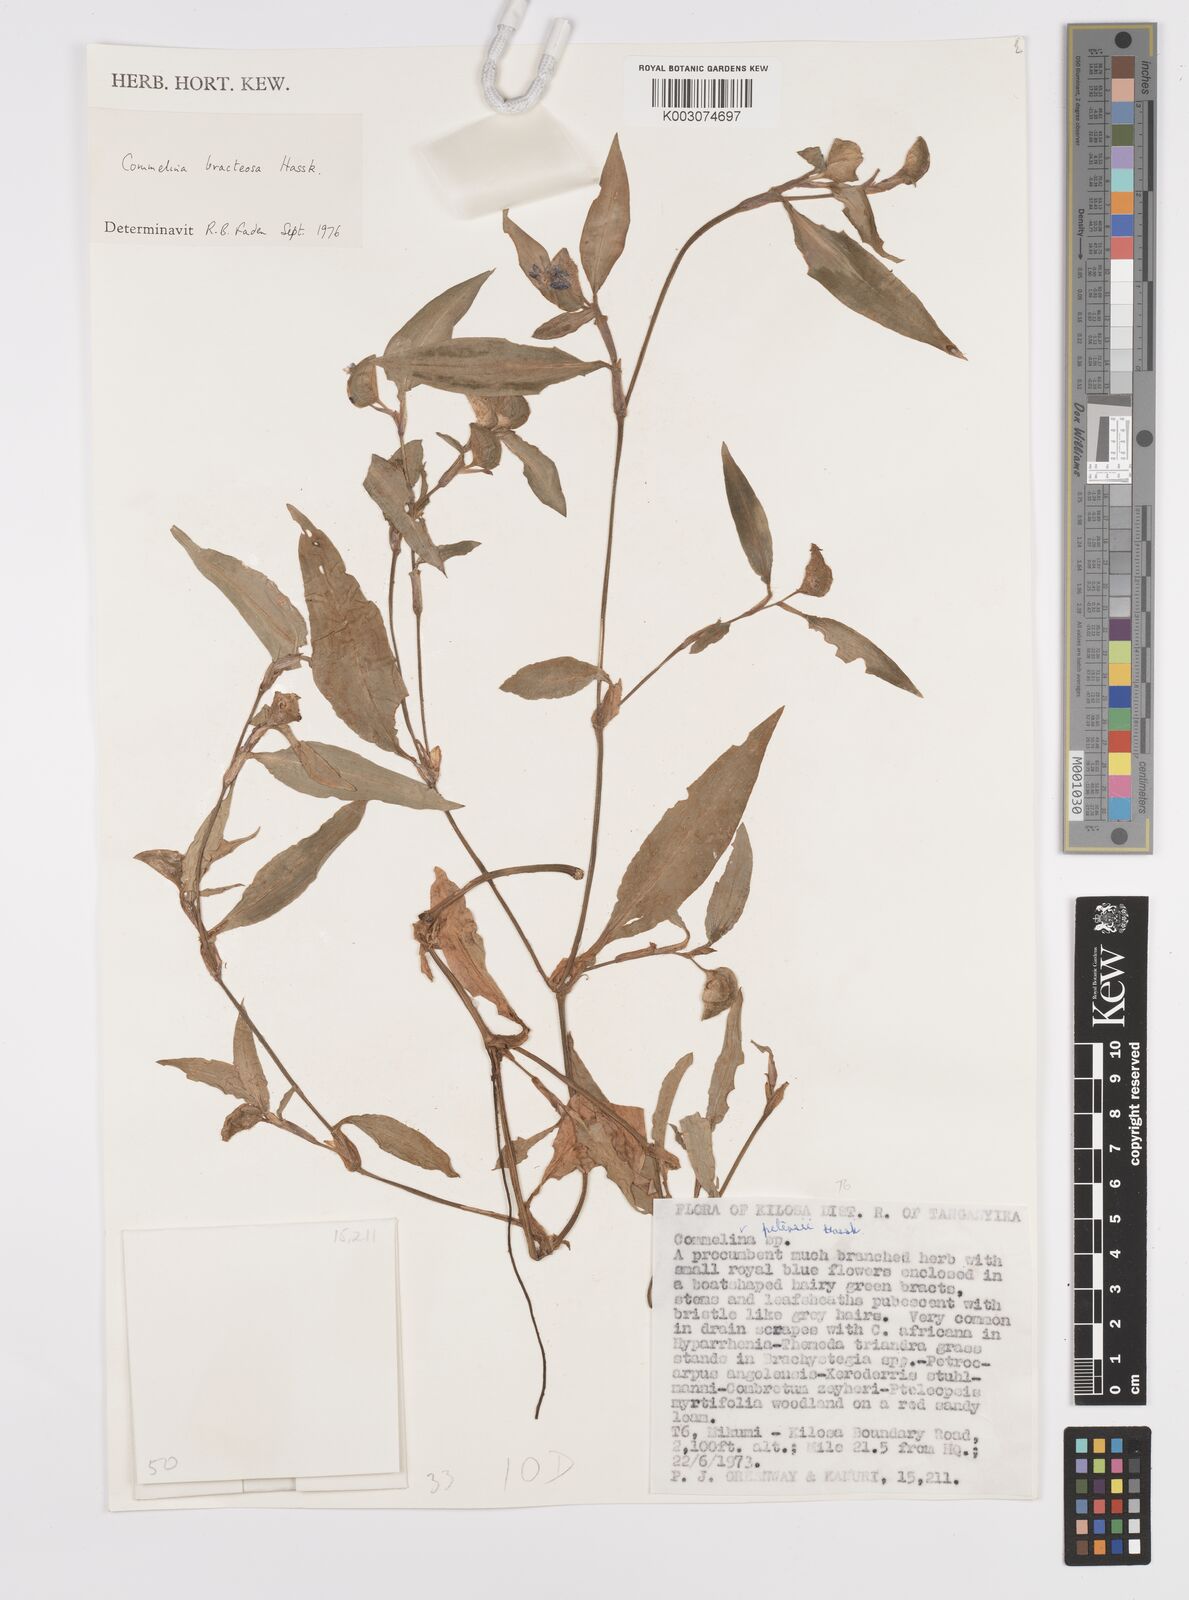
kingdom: Plantae
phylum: Tracheophyta
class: Liliopsida
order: Commelinales
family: Commelinaceae
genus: Commelina
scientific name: Commelina bracteosa
